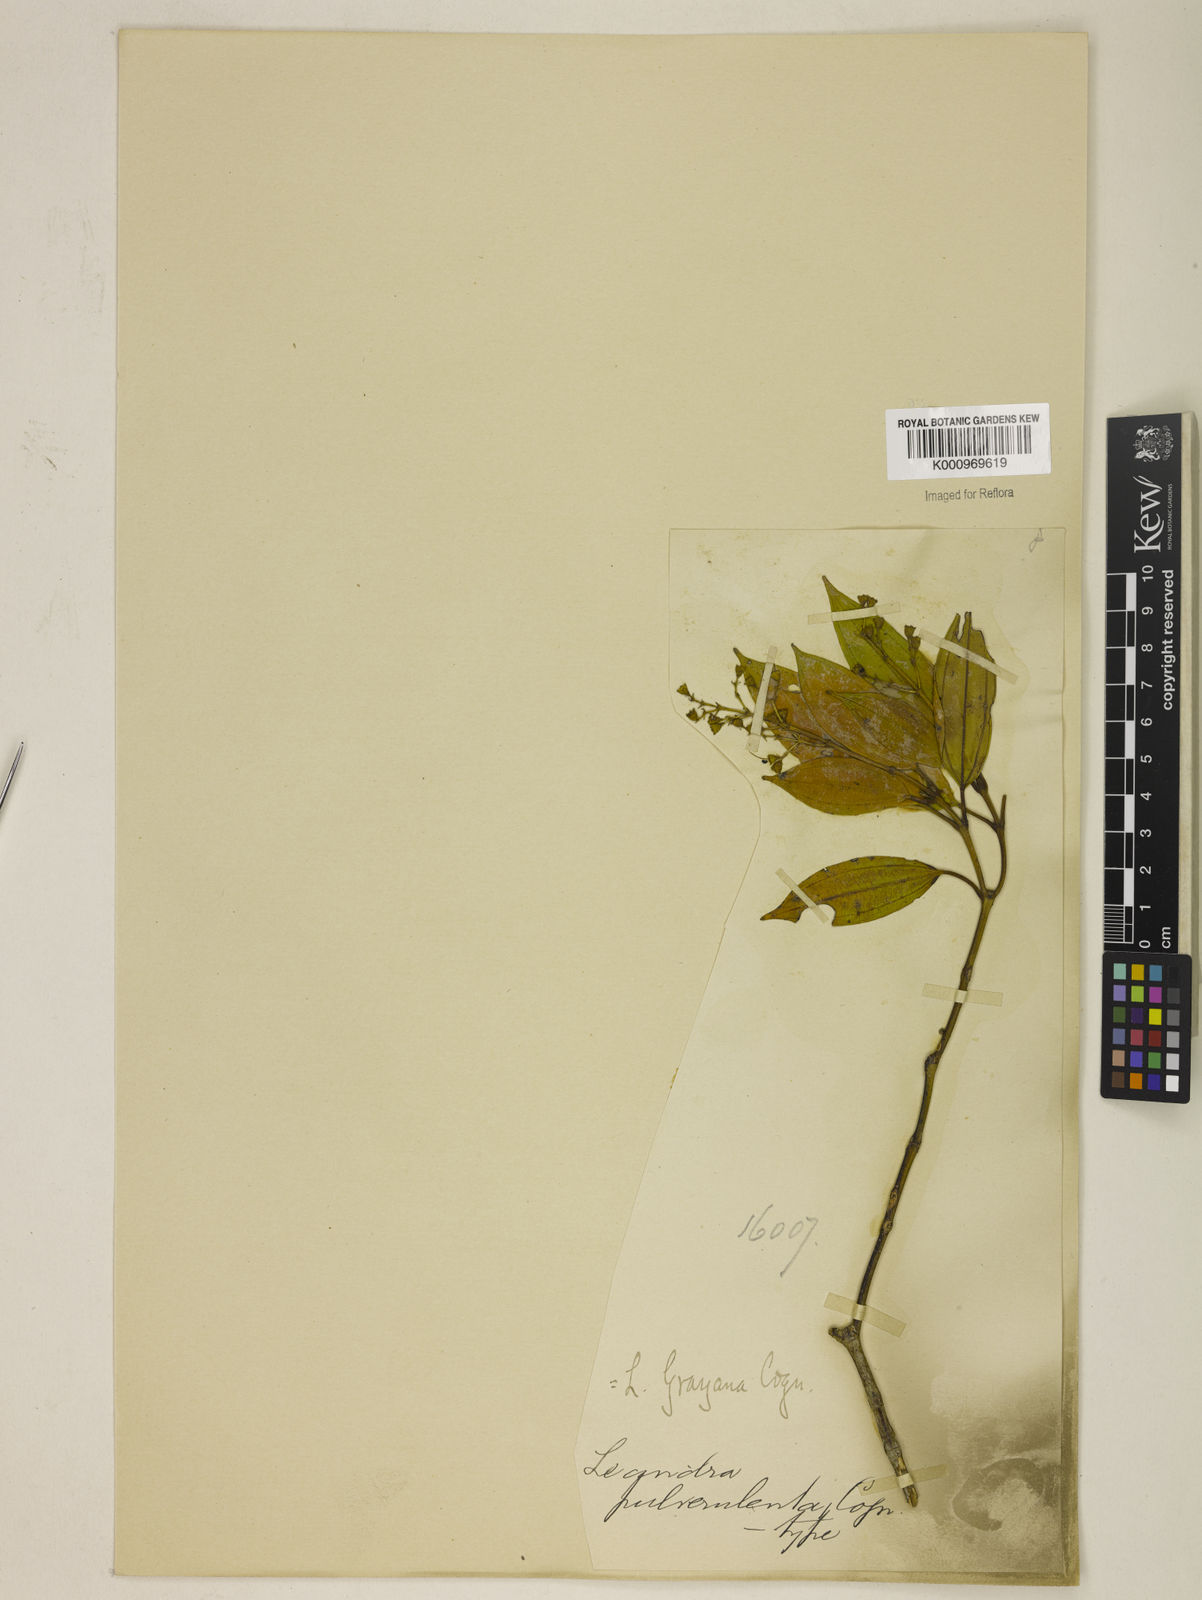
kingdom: Plantae
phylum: Tracheophyta
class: Magnoliopsida
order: Myrtales
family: Melastomataceae
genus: Miconia
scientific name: Miconia leagrayana
